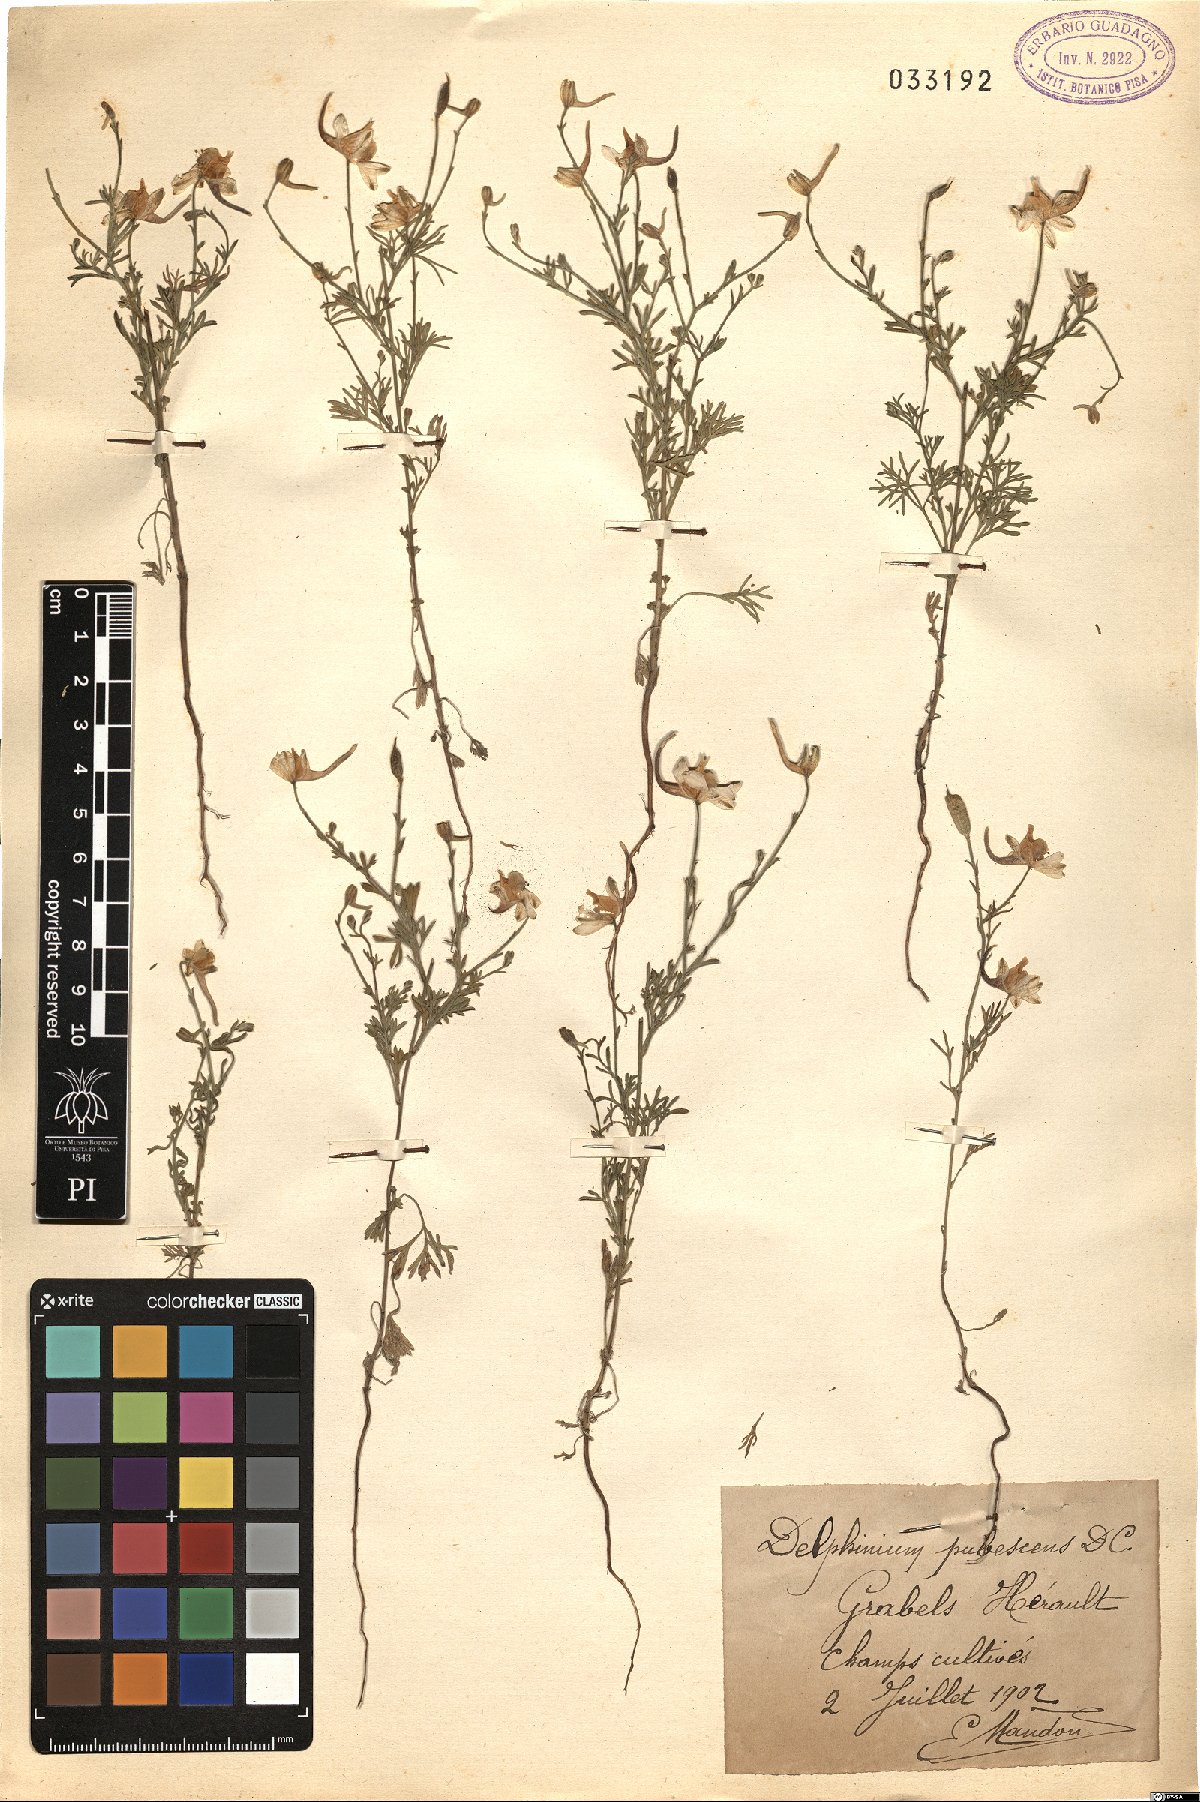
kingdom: Plantae
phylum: Tracheophyta
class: Magnoliopsida
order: Ranunculales
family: Ranunculaceae
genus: Delphinium
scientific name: Delphinium pubescens
